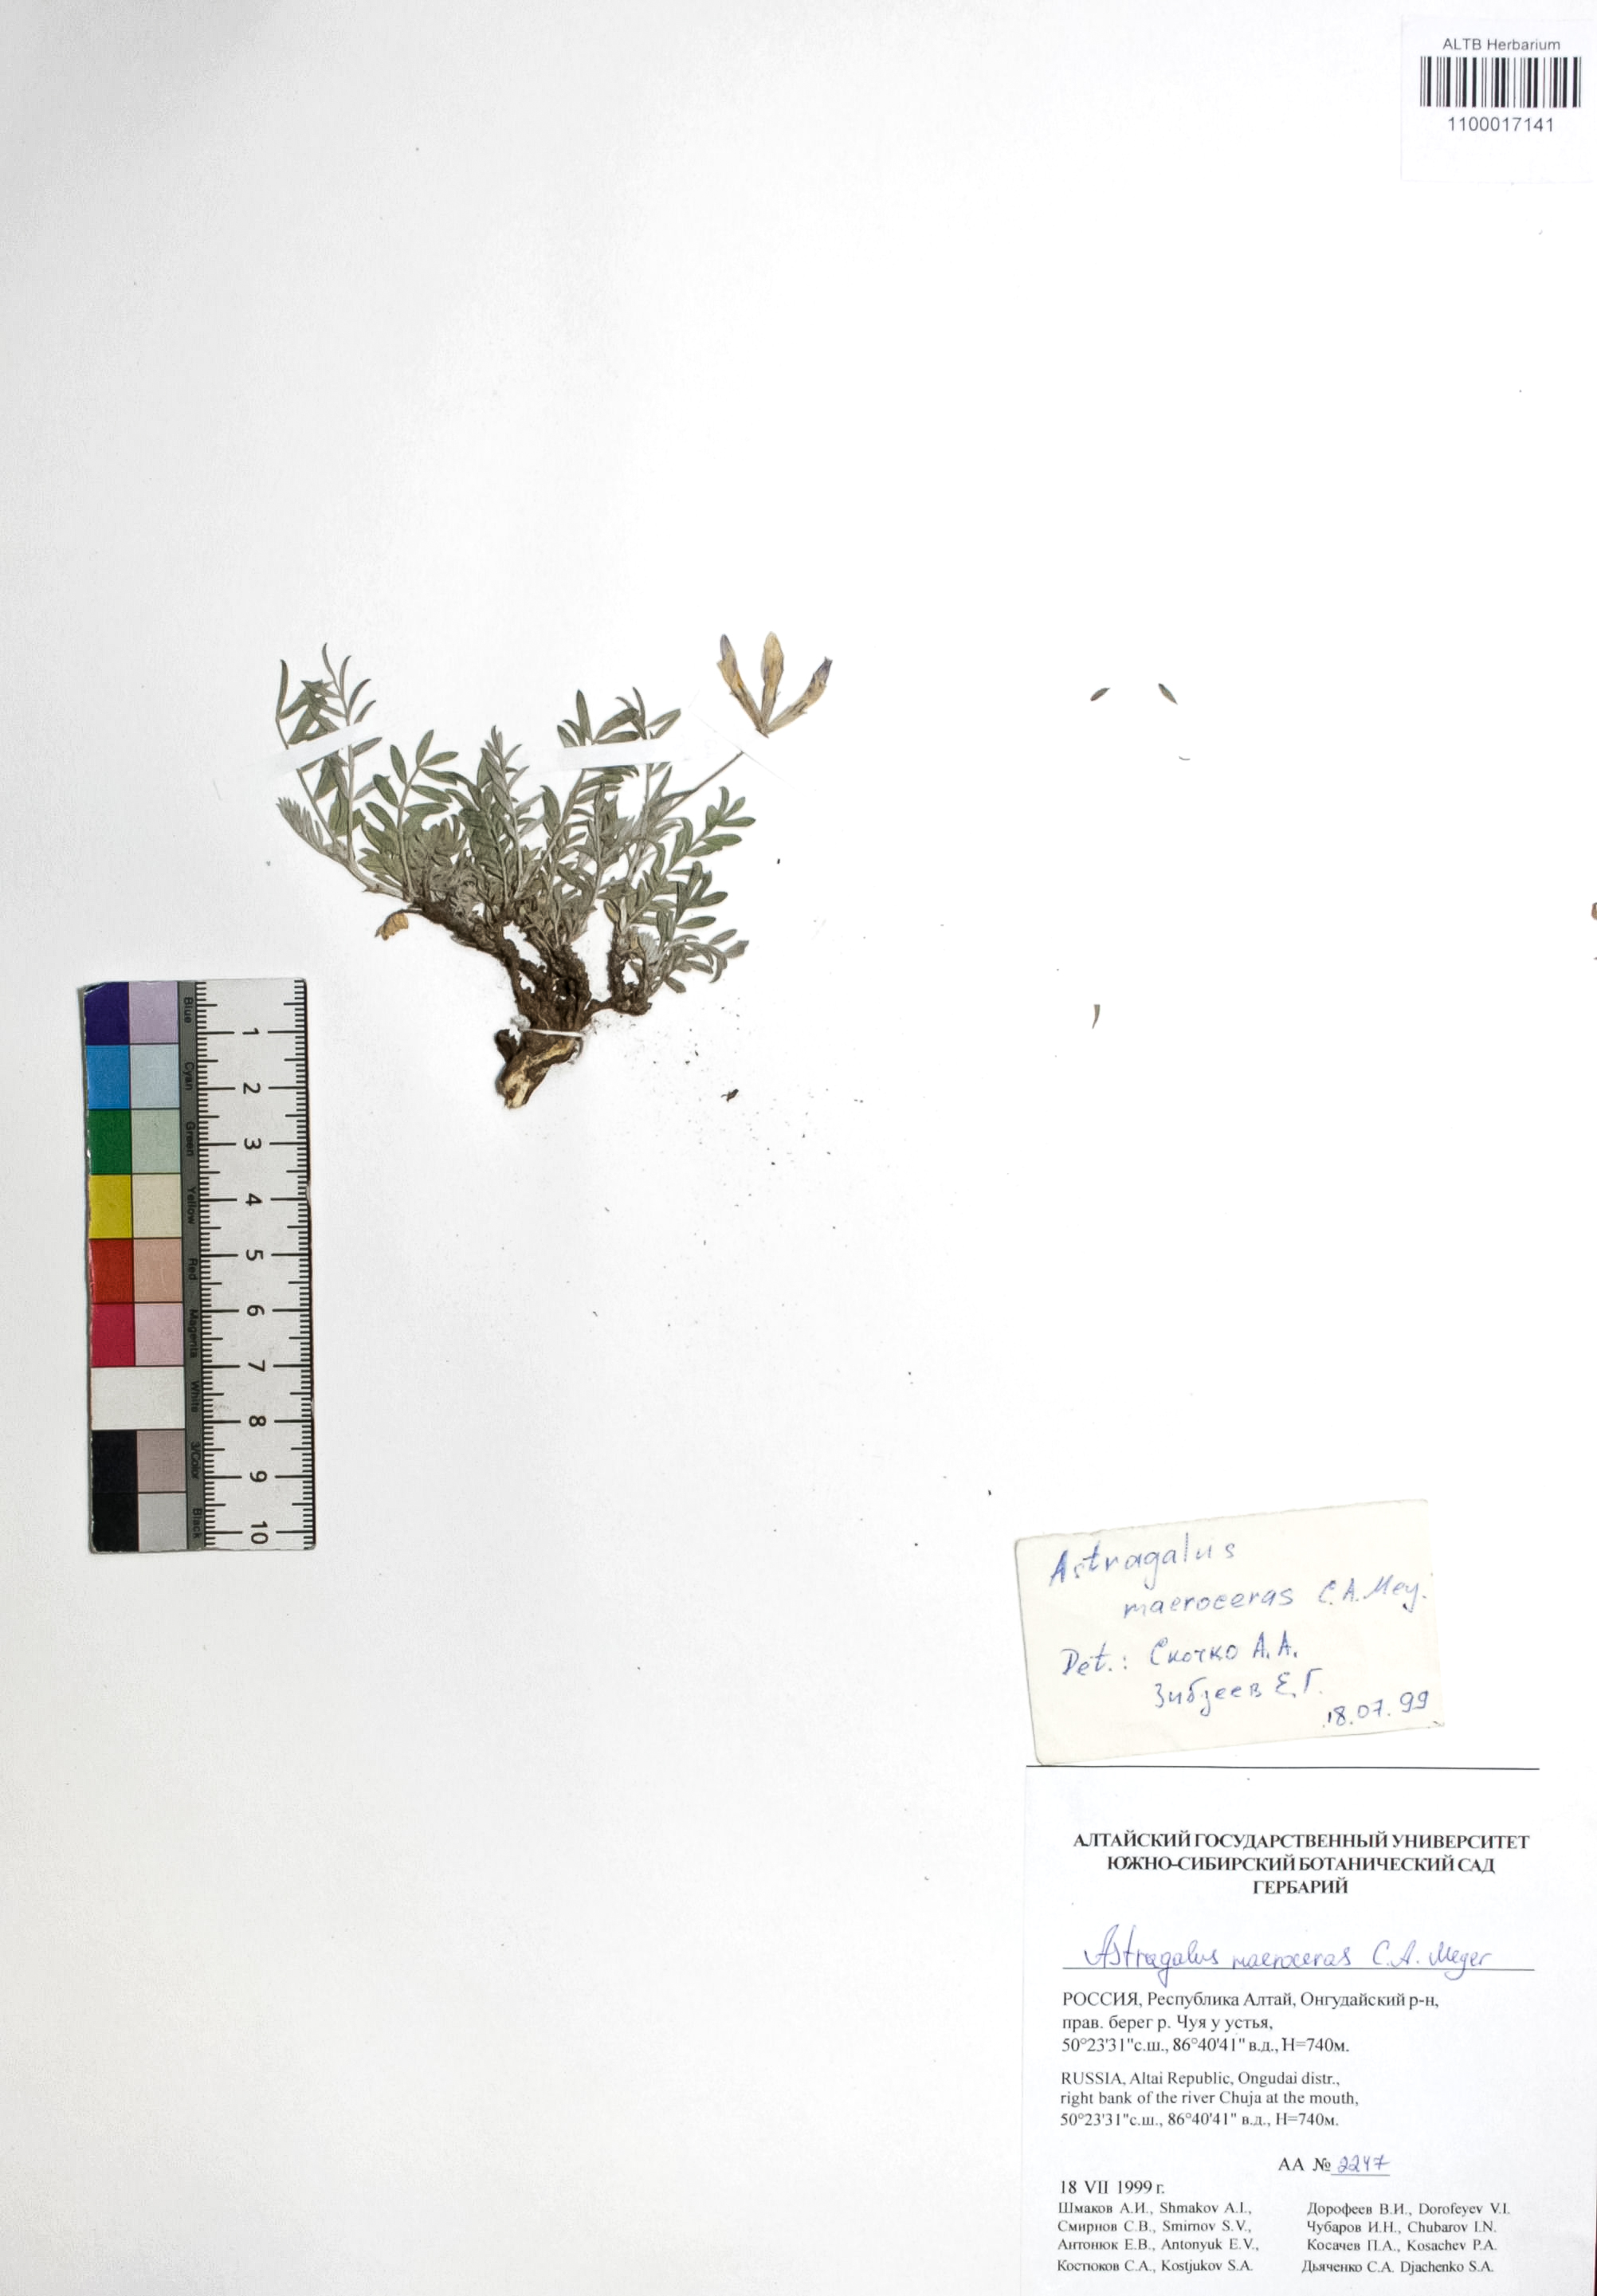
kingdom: Plantae
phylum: Tracheophyta
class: Magnoliopsida
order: Fabales
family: Fabaceae
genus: Astragalus
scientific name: Astragalus macroceras
